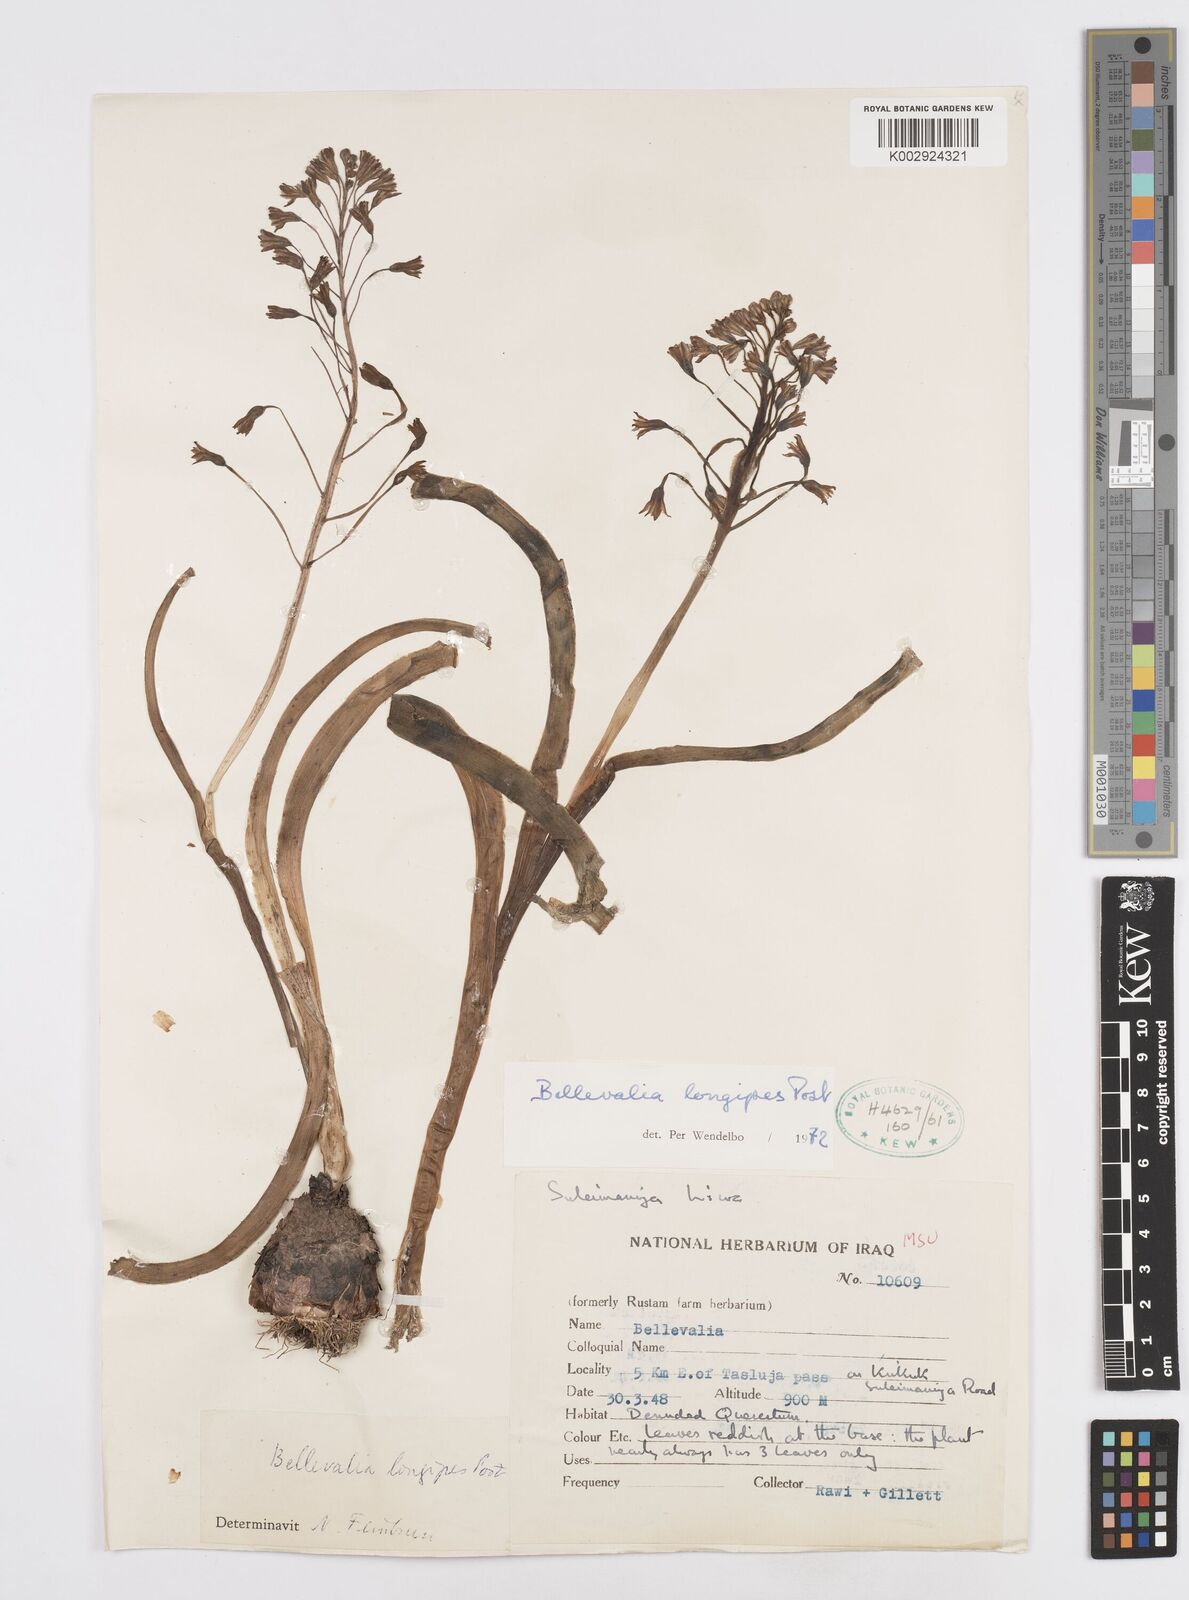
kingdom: Plantae
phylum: Tracheophyta
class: Liliopsida
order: Asparagales
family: Asparagaceae
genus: Bellevalia
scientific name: Bellevalia longipes
